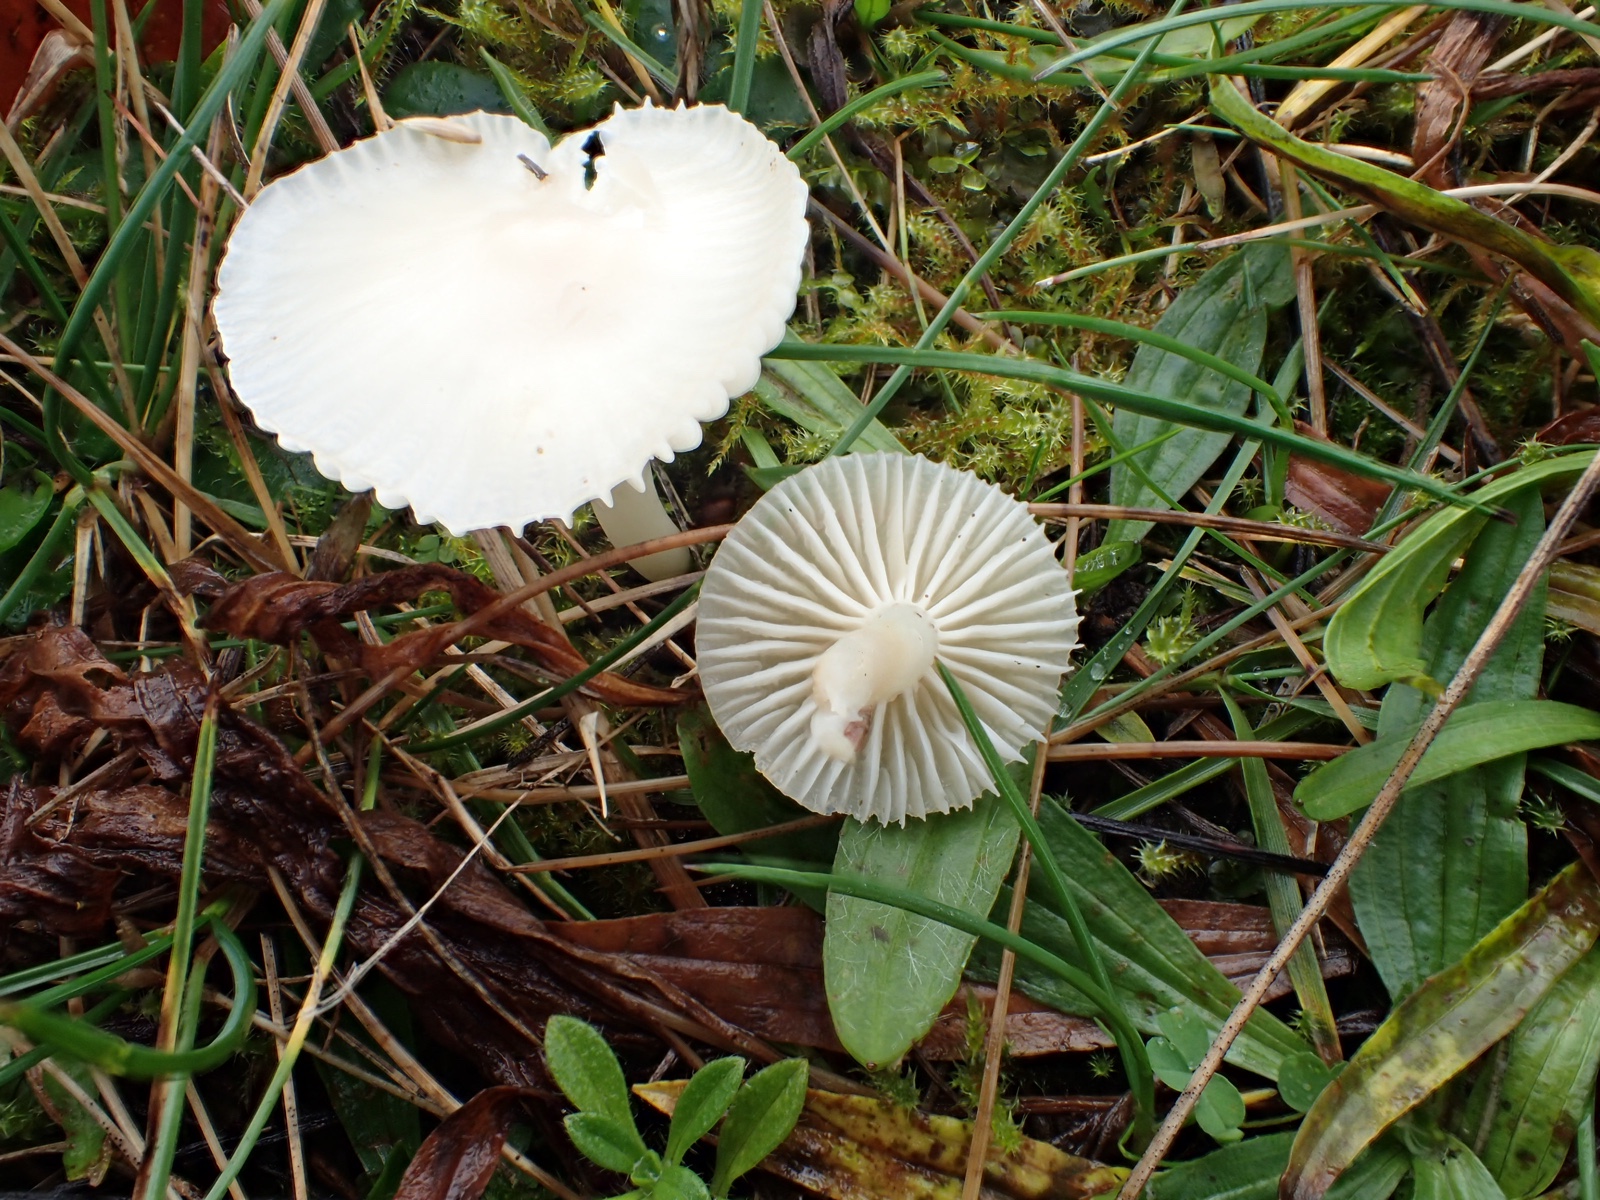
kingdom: Fungi
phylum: Basidiomycota
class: Agaricomycetes
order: Agaricales
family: Hygrophoraceae
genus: Cuphophyllus
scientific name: Cuphophyllus virgineus
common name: snehvid vokshat
